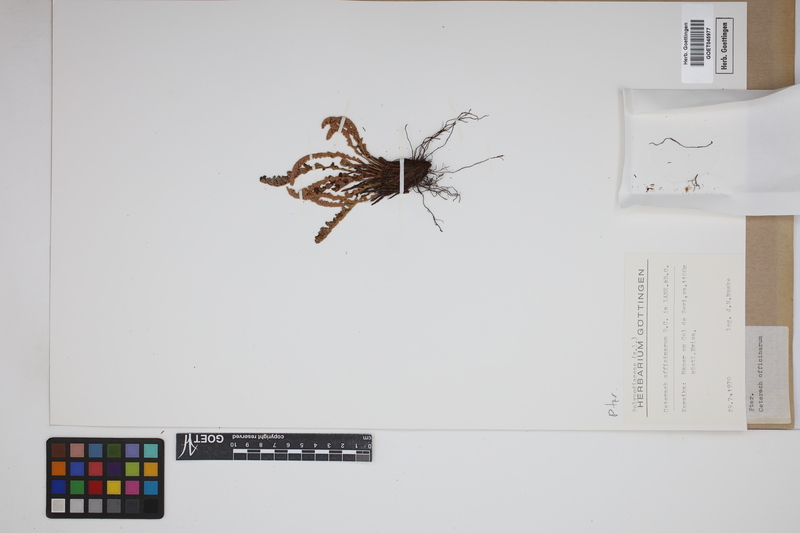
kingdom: Plantae
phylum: Tracheophyta
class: Polypodiopsida
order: Polypodiales
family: Aspleniaceae
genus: Asplenium
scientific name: Asplenium ceterach
